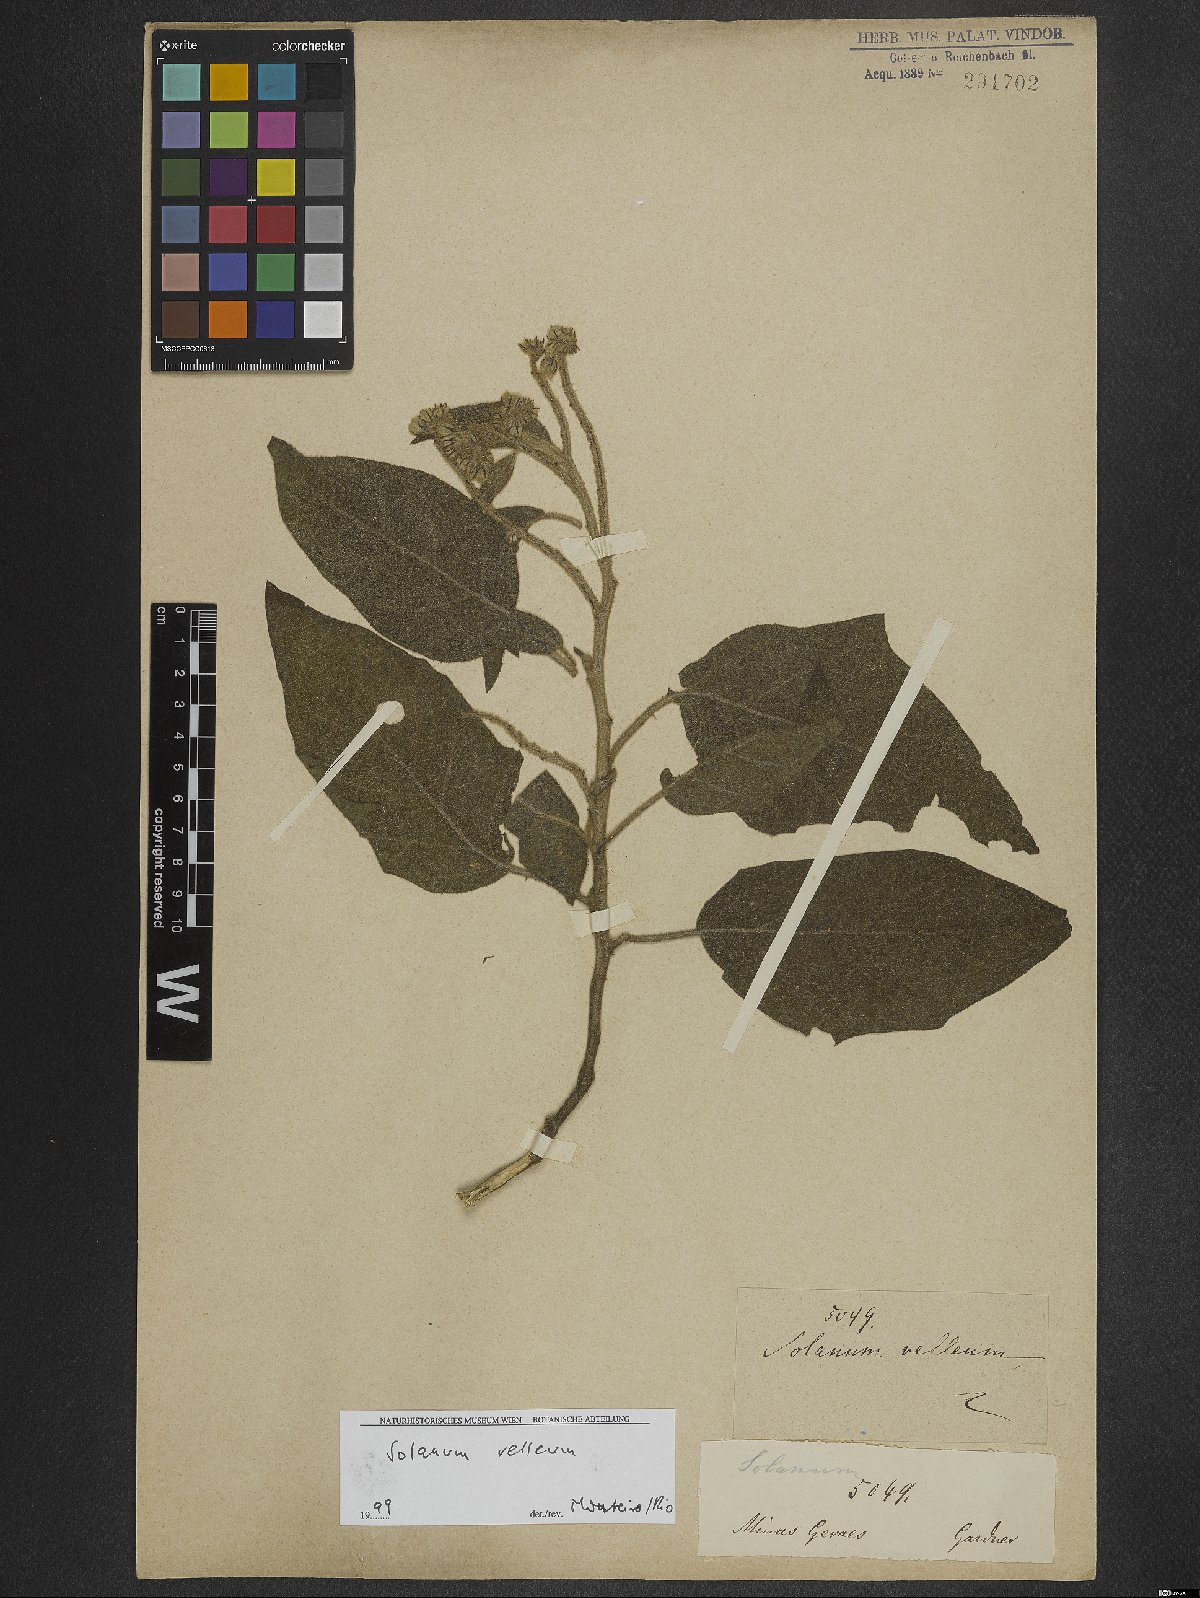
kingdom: Plantae
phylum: Tracheophyta
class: Magnoliopsida
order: Solanales
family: Solanaceae
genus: Solanum
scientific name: Solanum velleum
